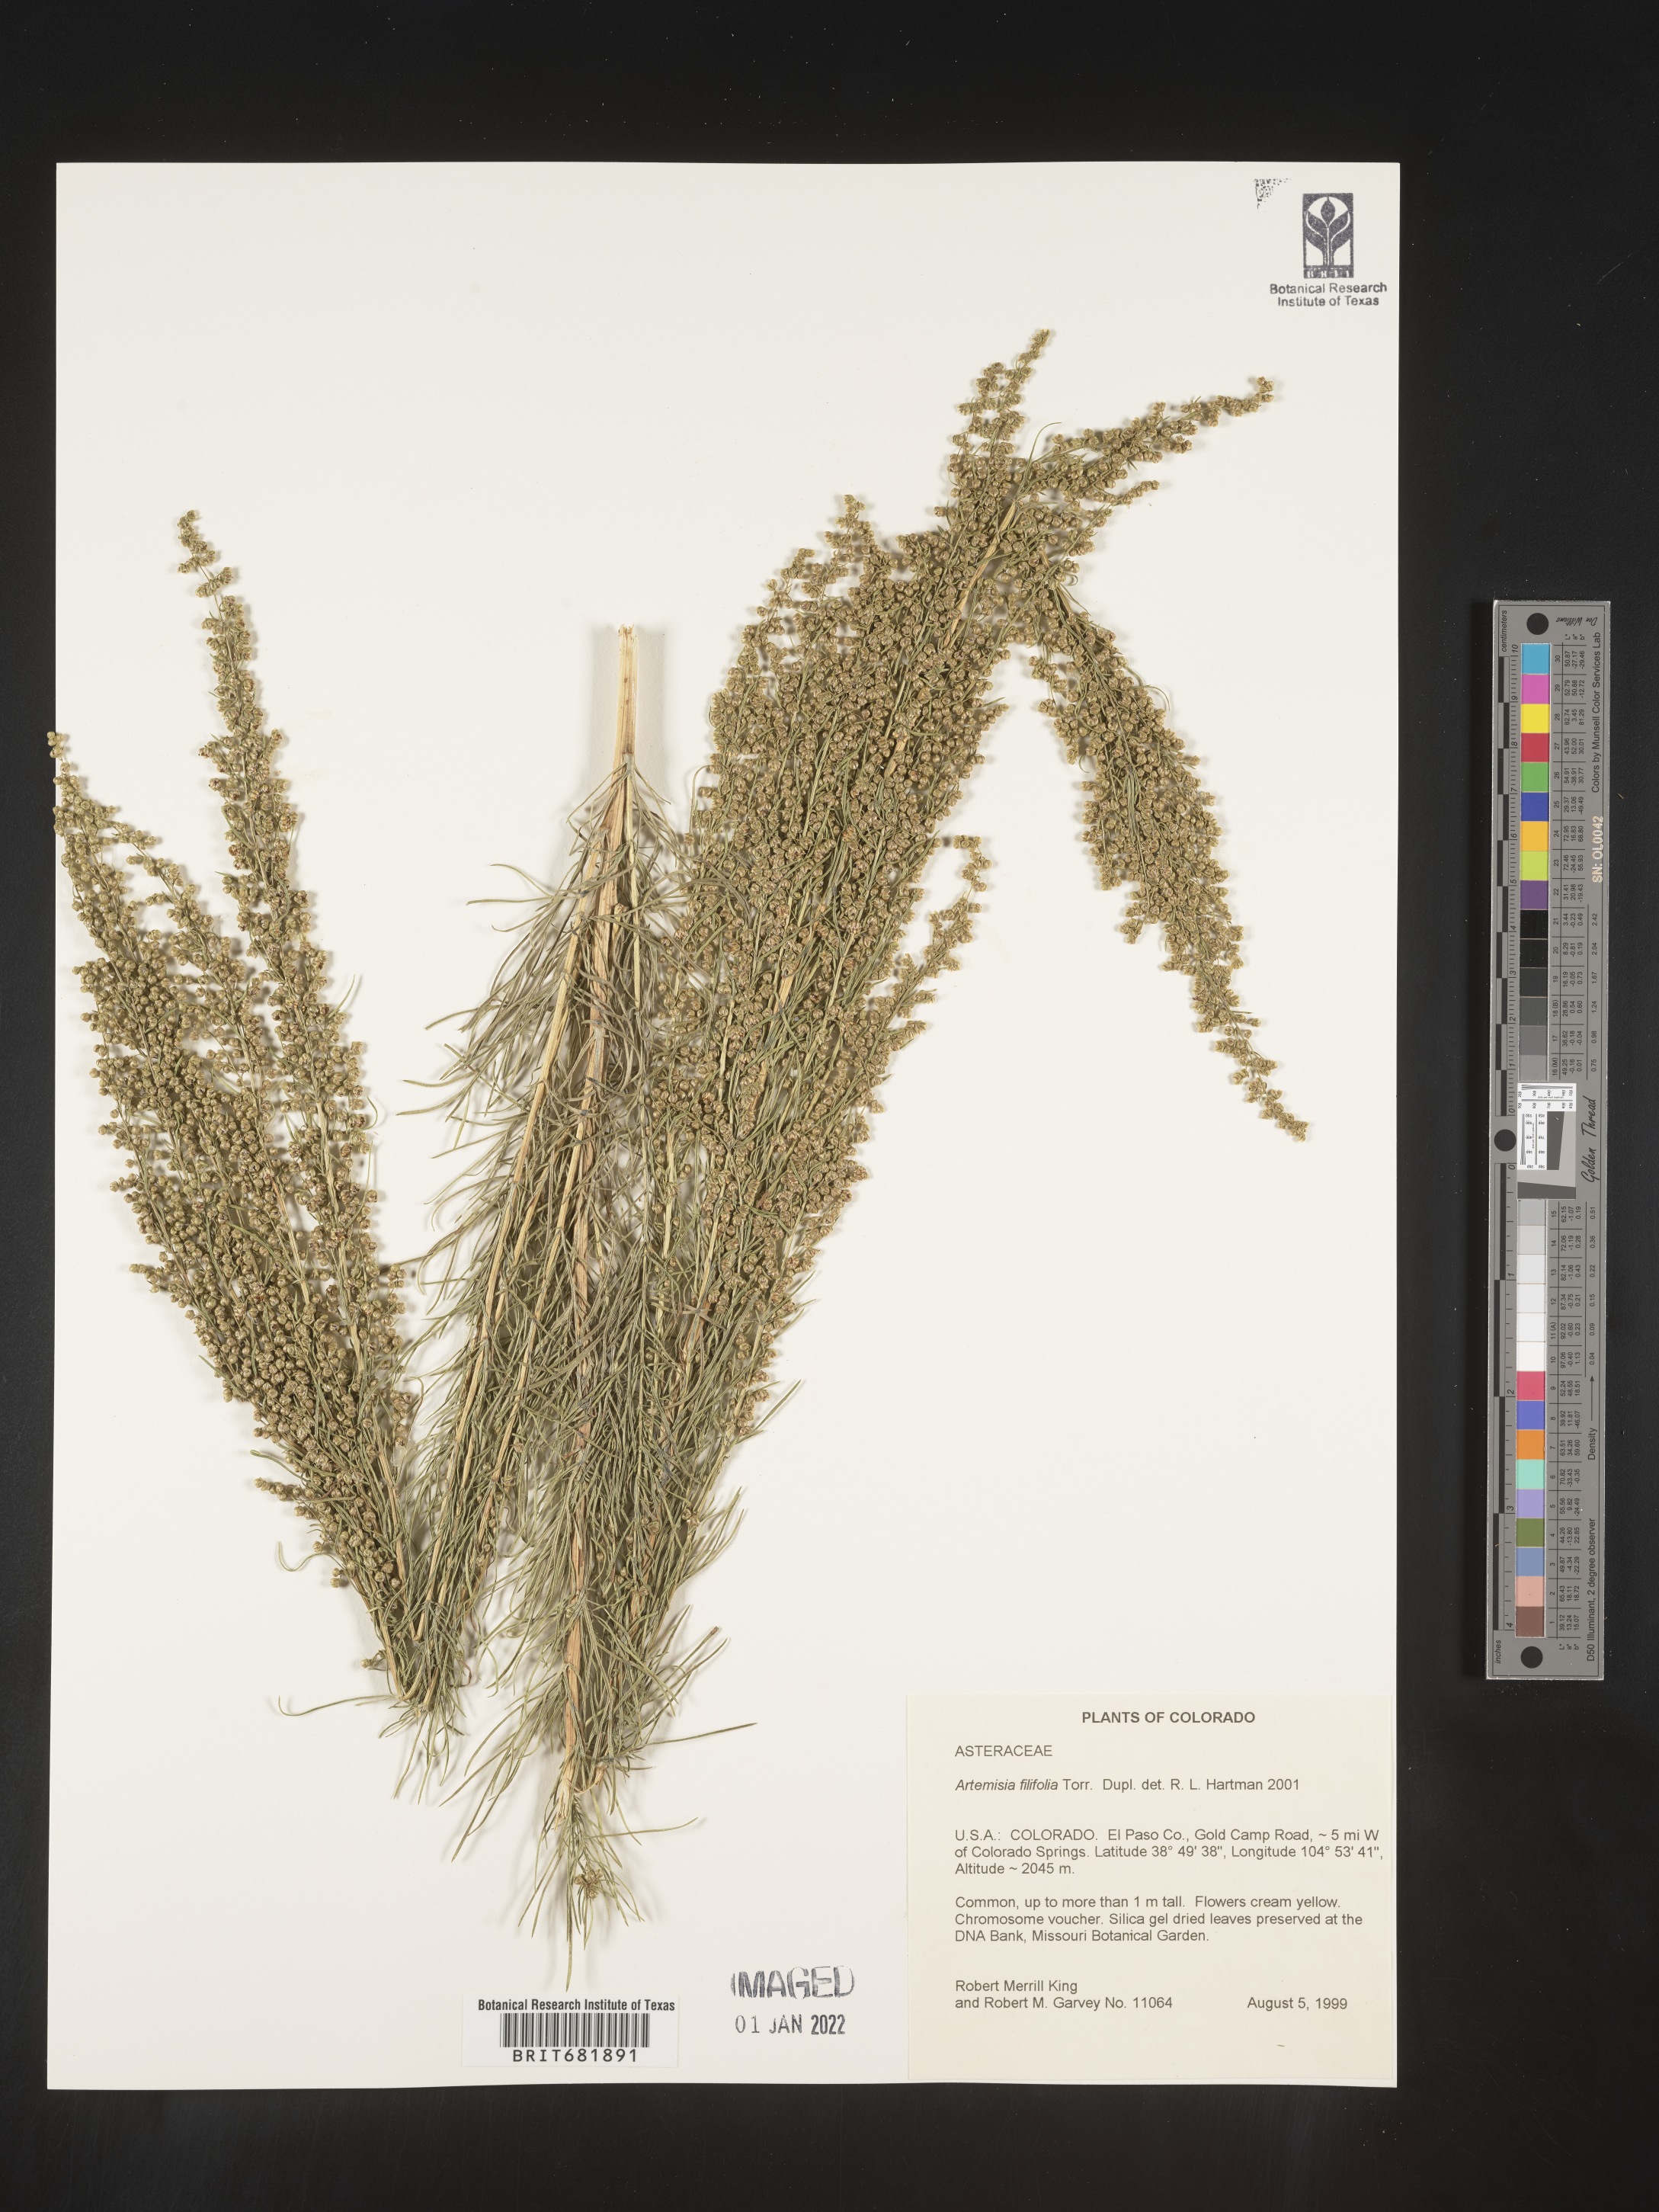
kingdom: Plantae
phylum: Tracheophyta
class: Magnoliopsida
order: Asterales
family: Asteraceae
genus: Artemisia
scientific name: Artemisia filifolia
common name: Sand-sage
